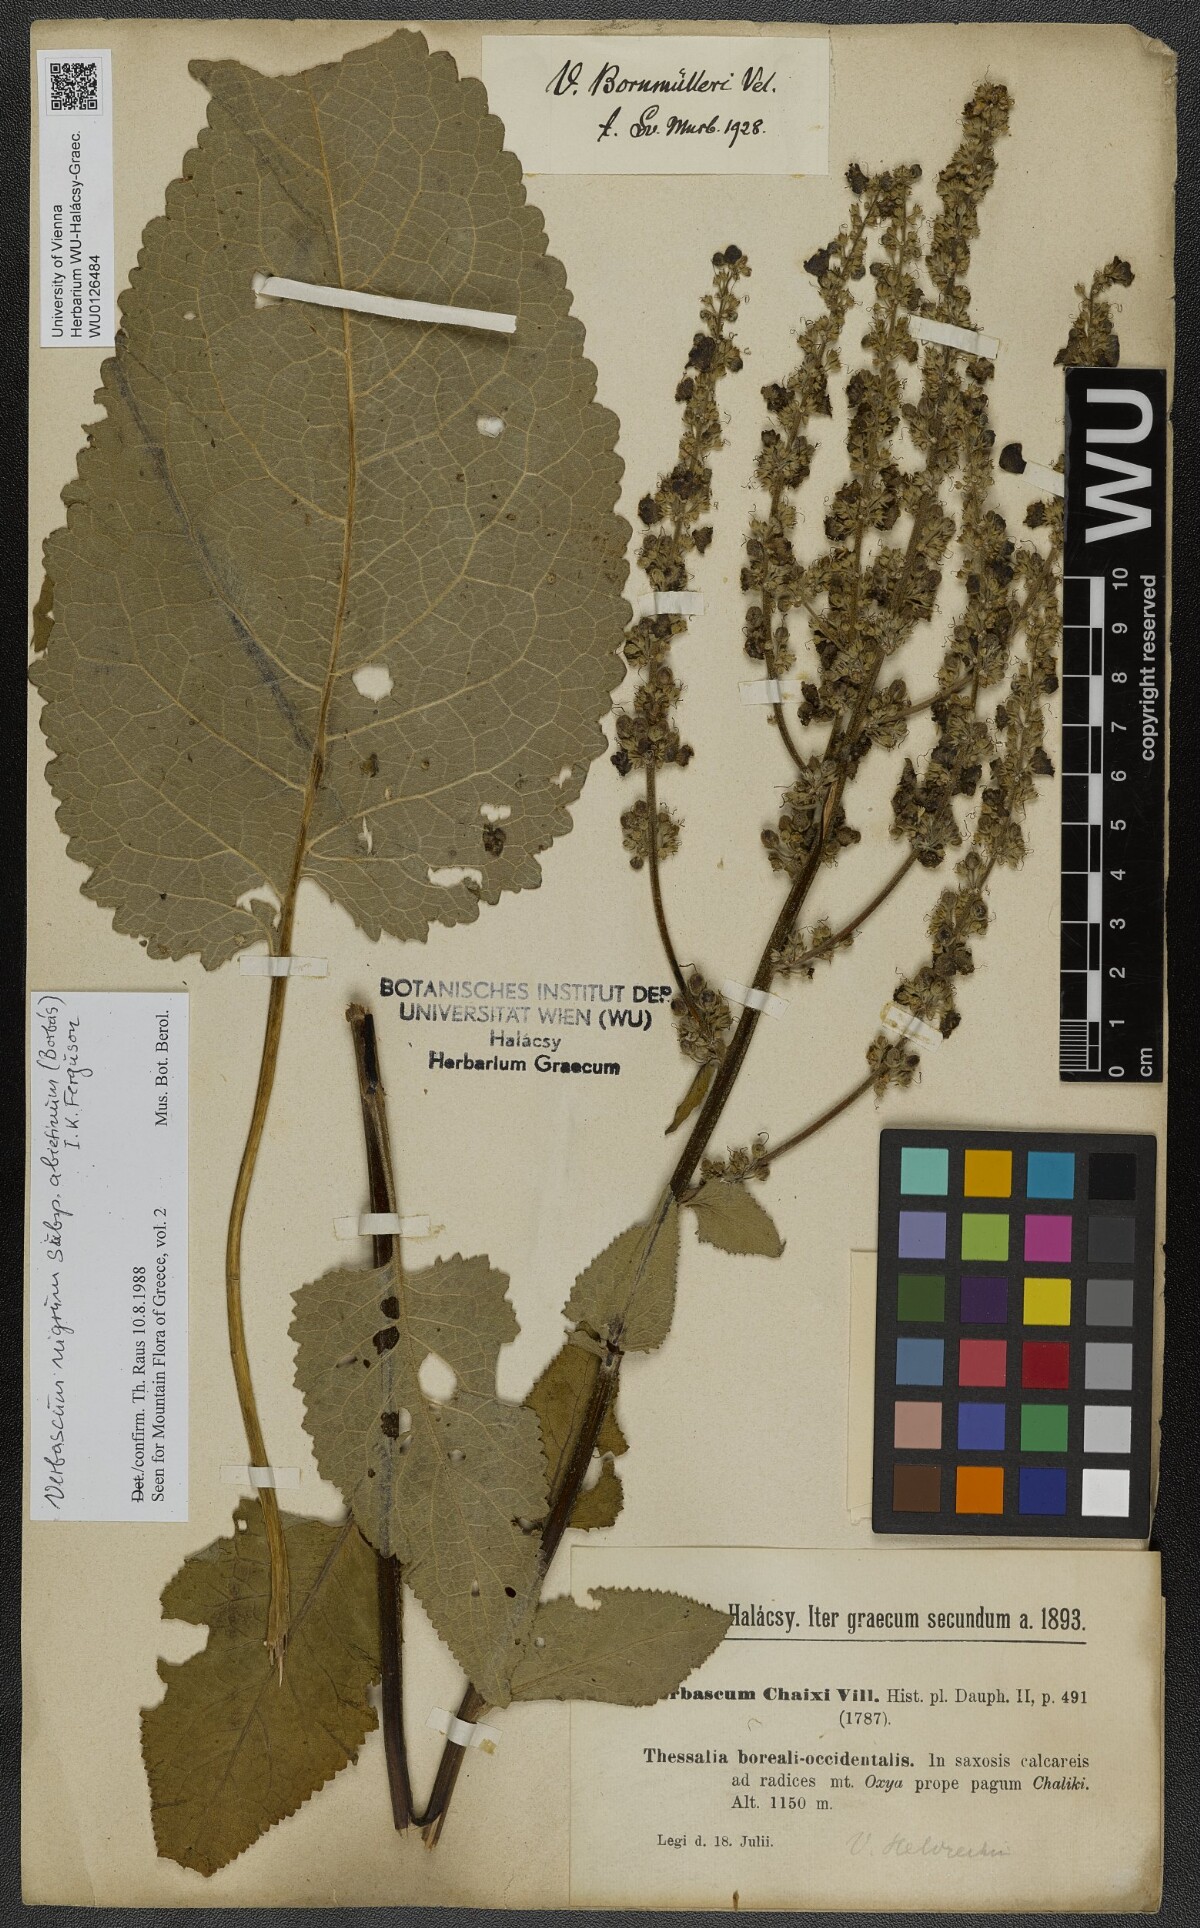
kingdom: Plantae
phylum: Tracheophyta
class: Magnoliopsida
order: Lamiales
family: Scrophulariaceae
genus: Verbascum
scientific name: Verbascum nigrum
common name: Dark mullein
